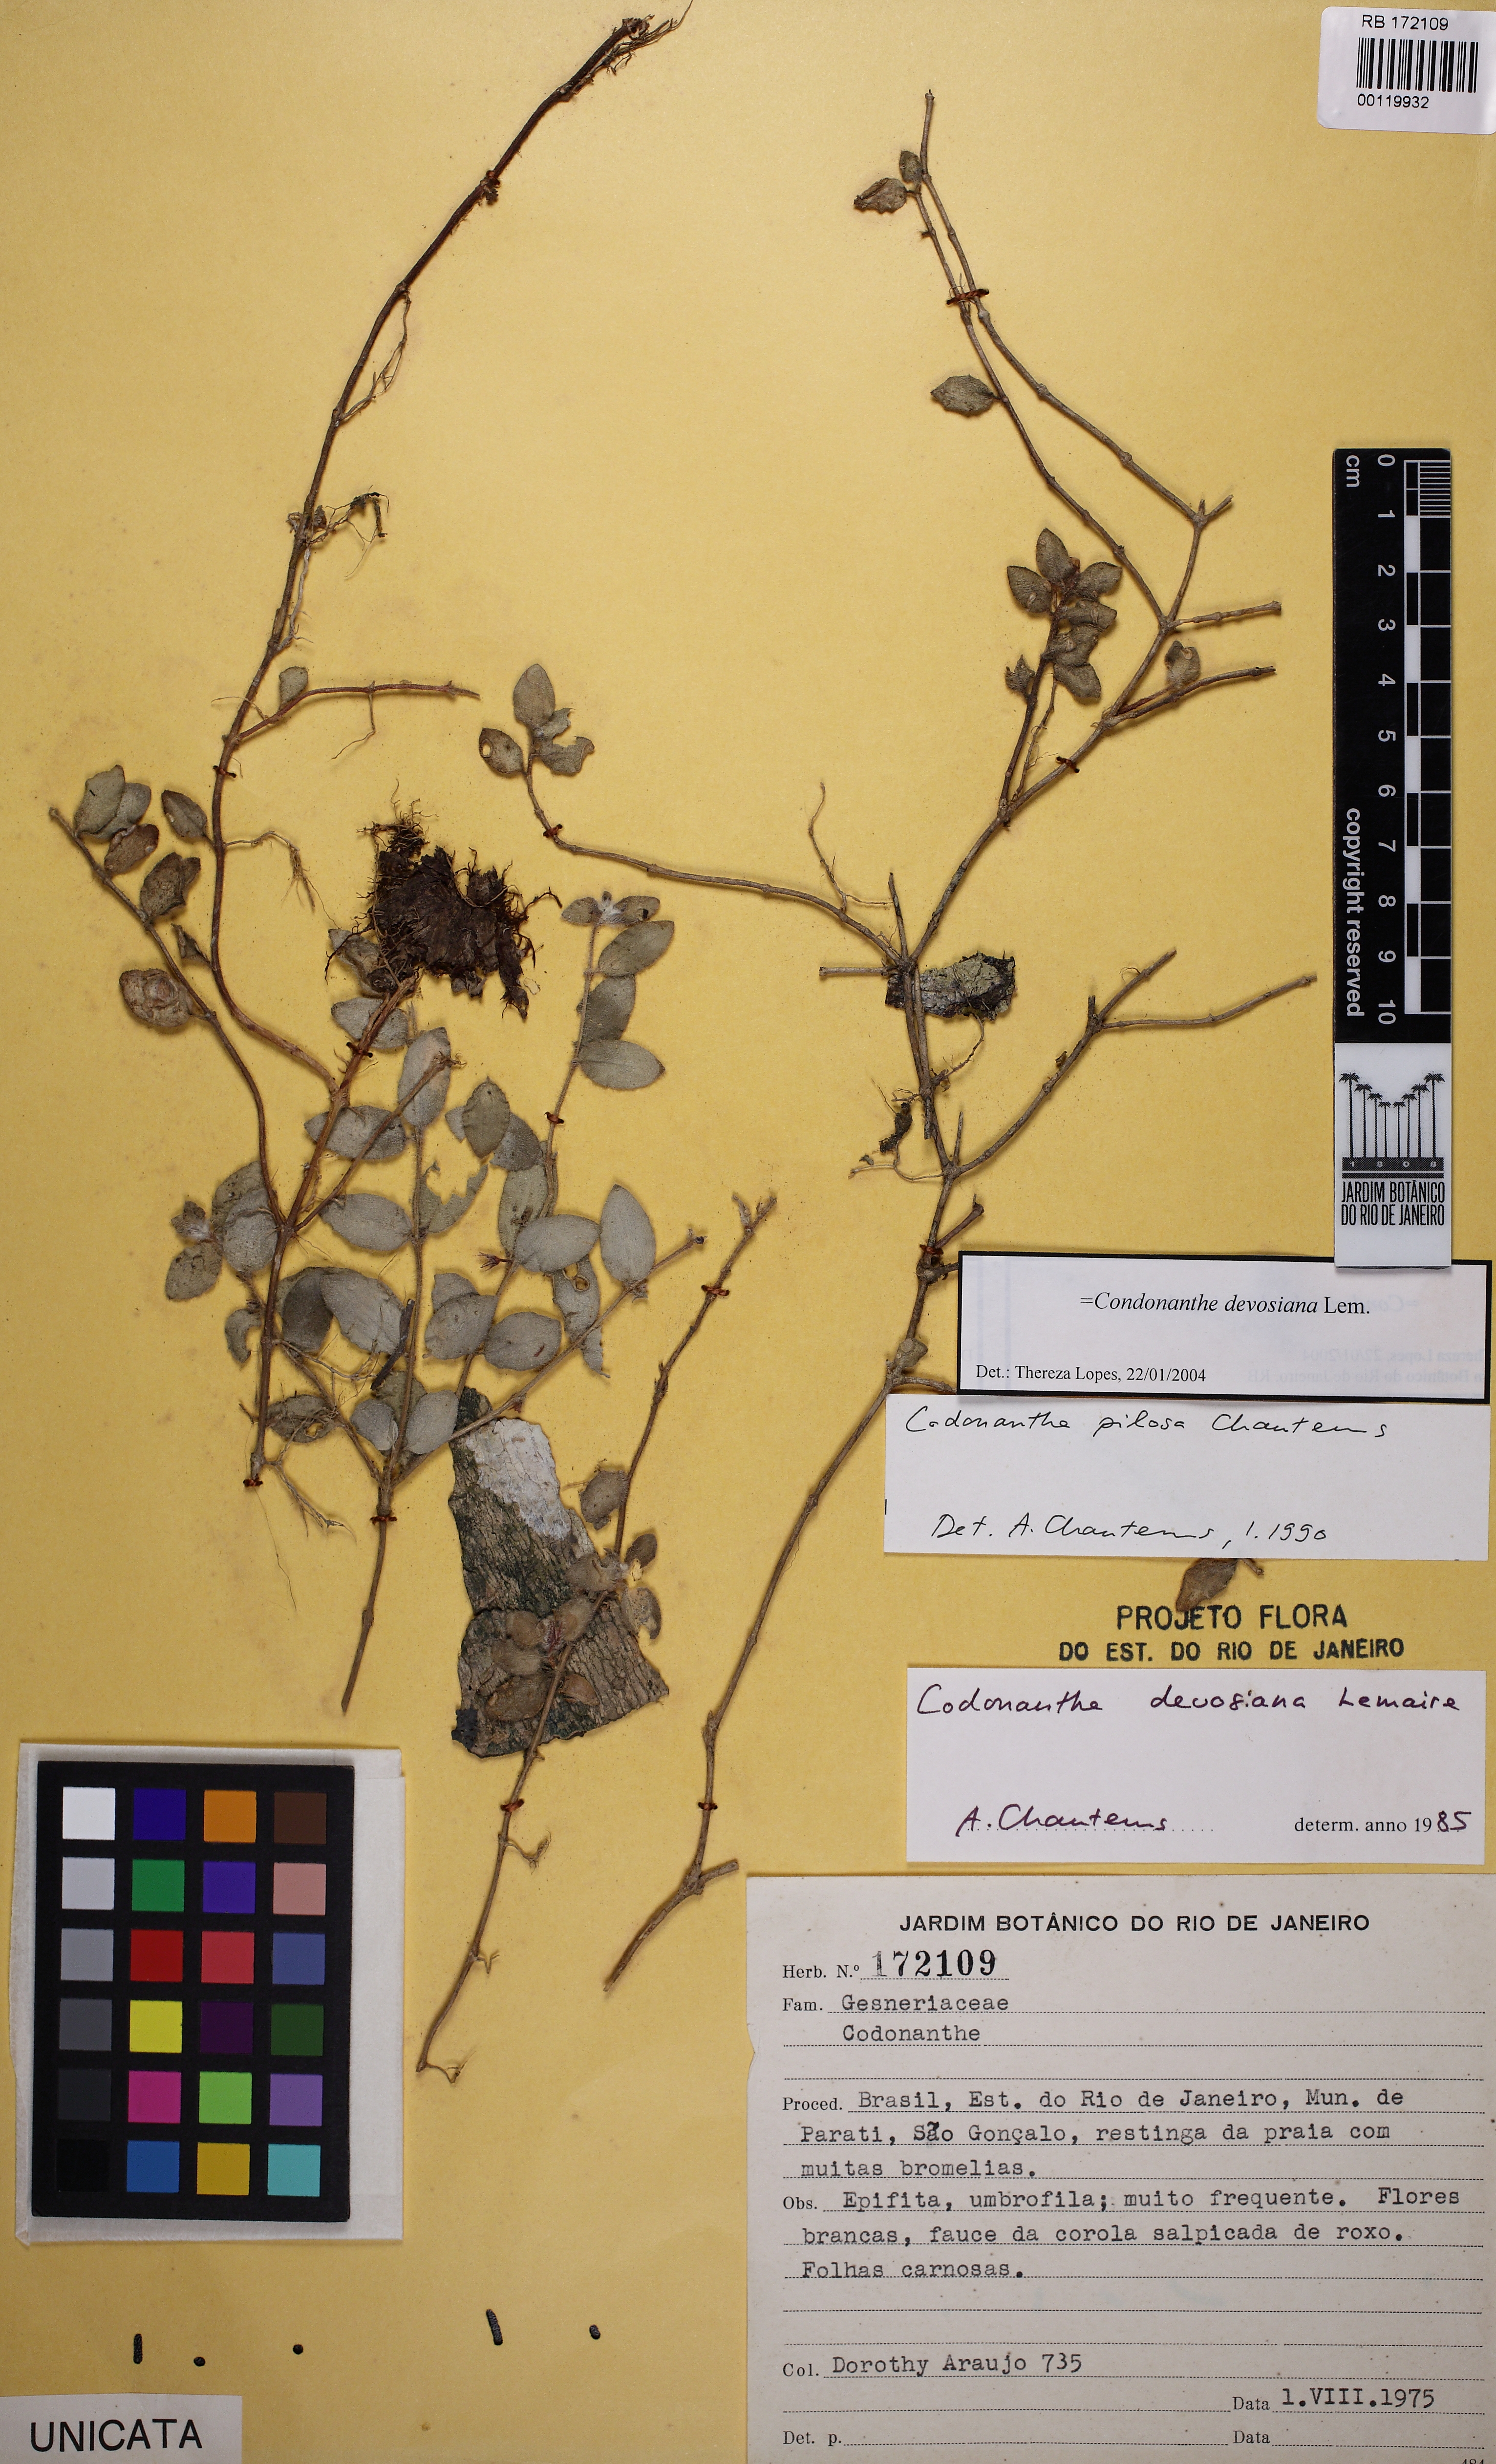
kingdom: Plantae
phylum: Tracheophyta
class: Magnoliopsida
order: Lamiales
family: Gesneriaceae
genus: Codonanthe
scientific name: Codonanthe devosiana
